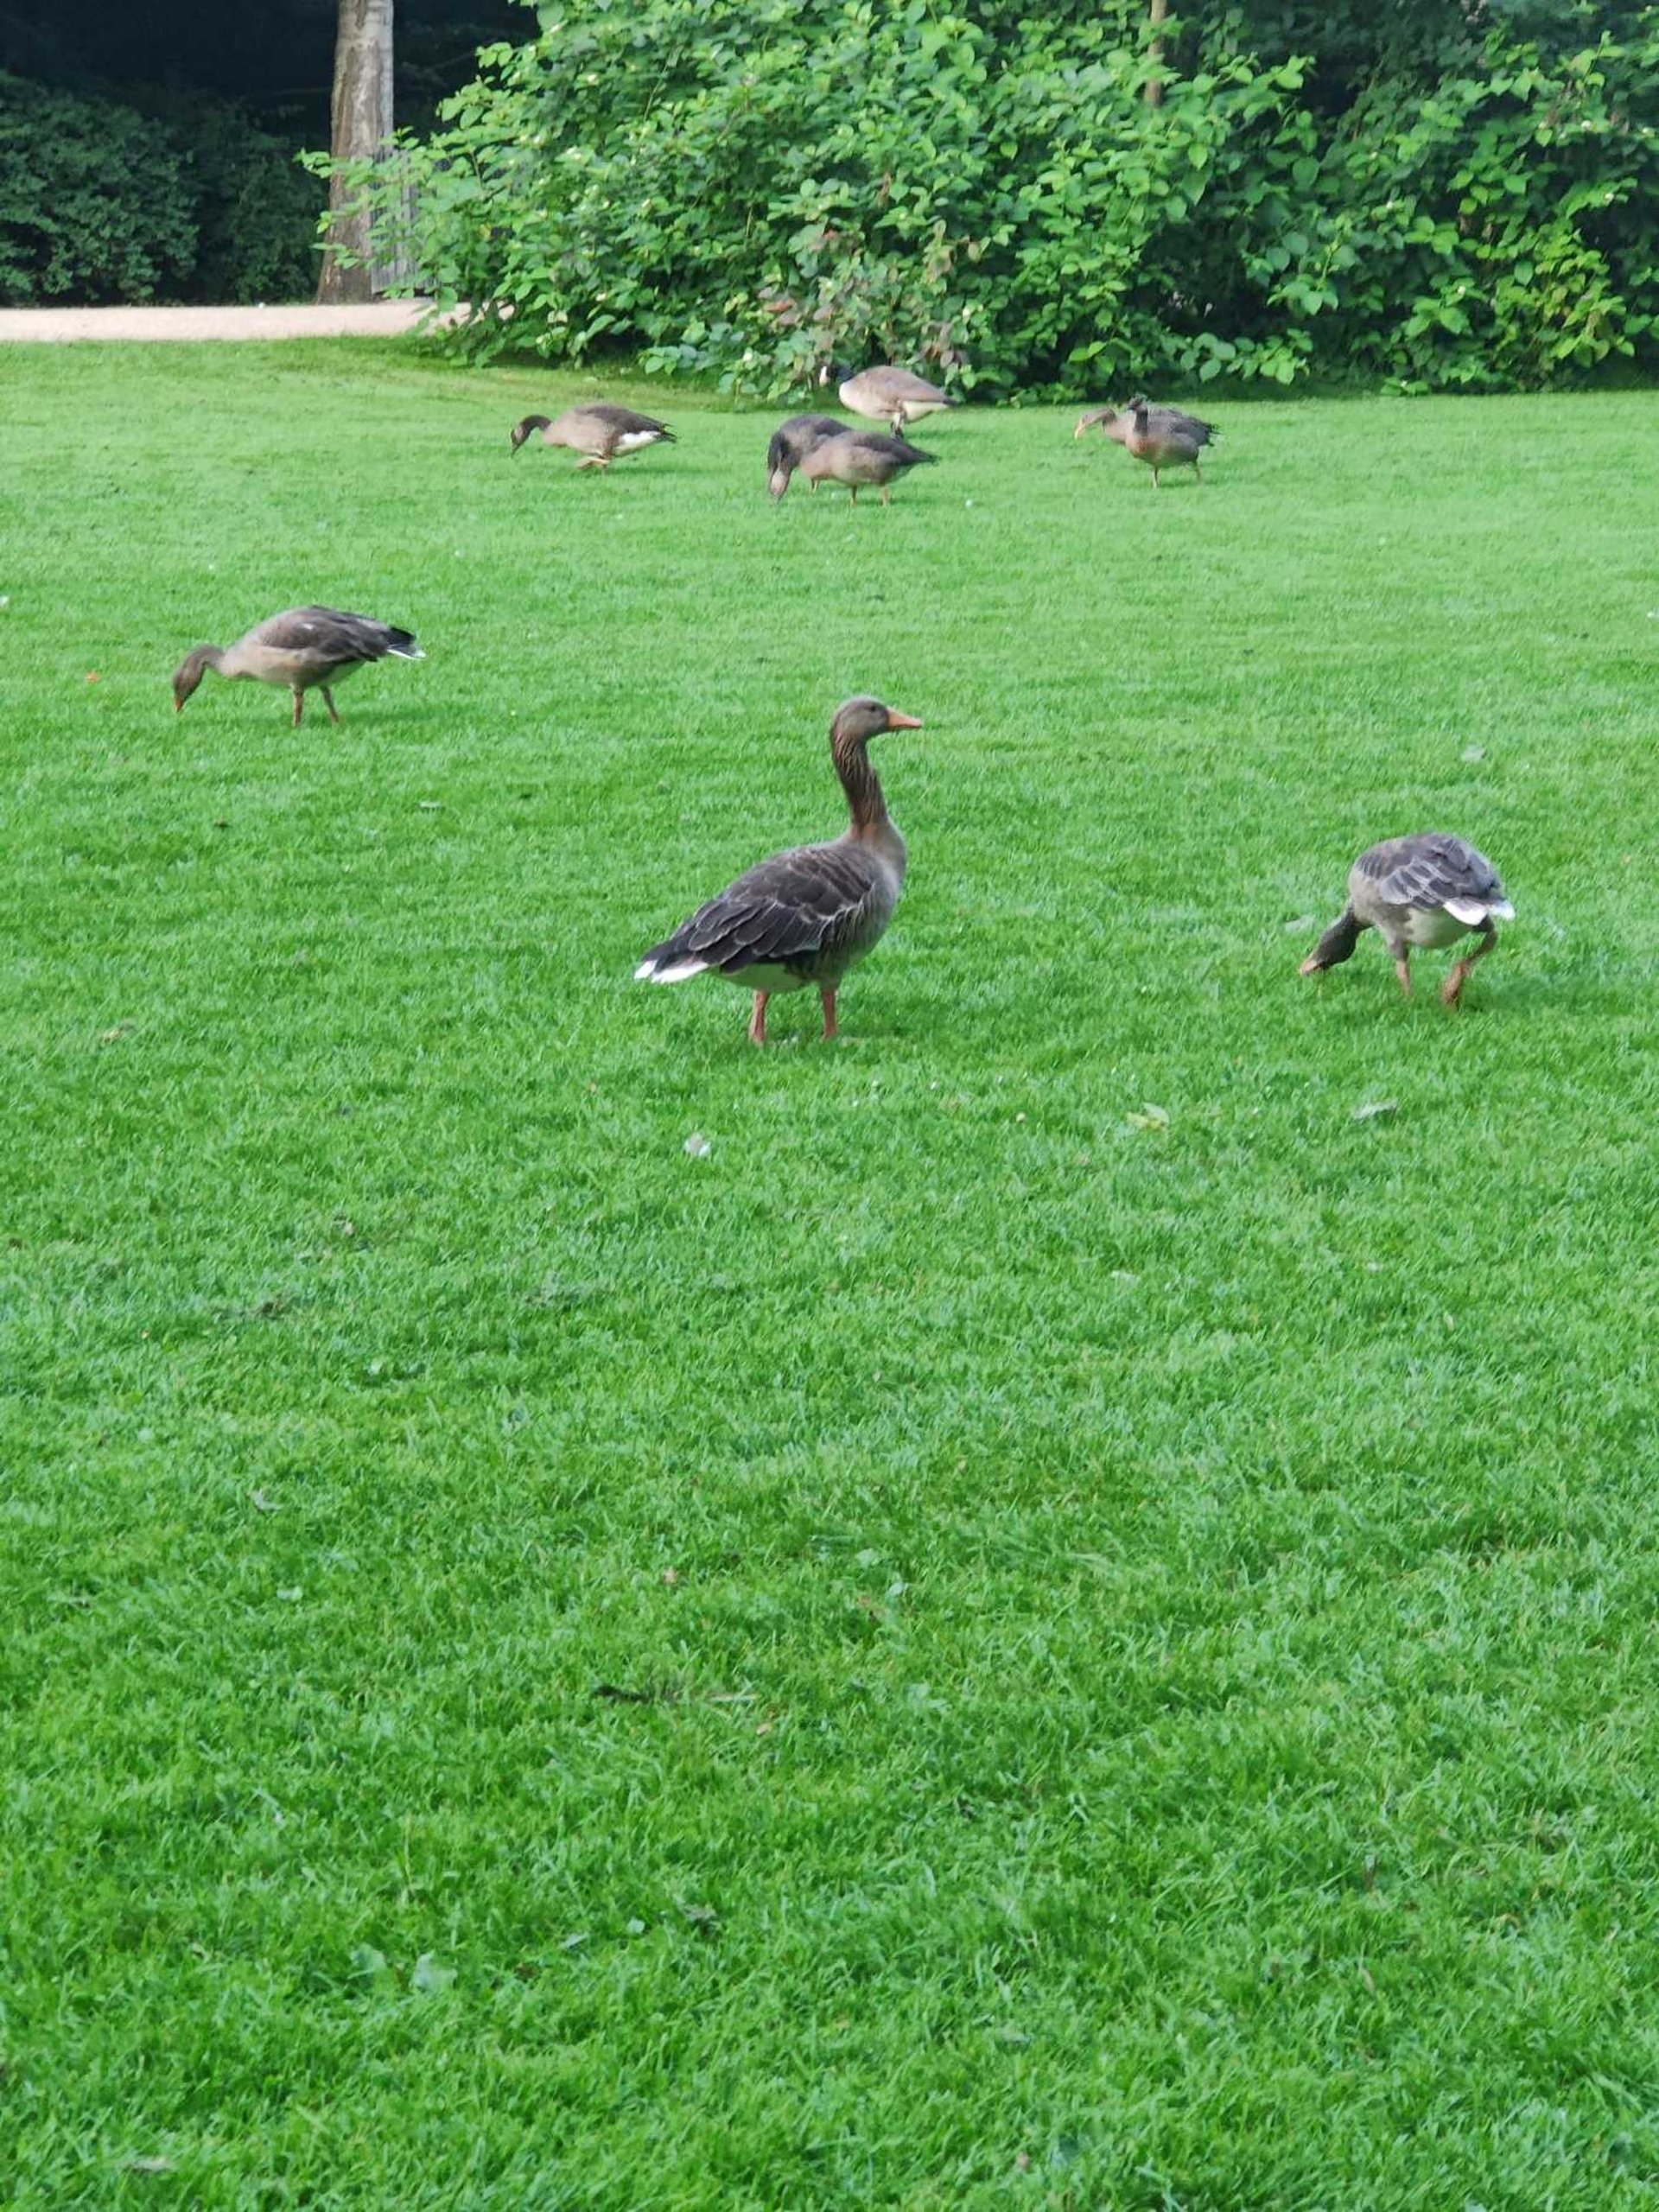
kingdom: Animalia
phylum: Chordata
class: Aves
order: Anseriformes
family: Anatidae
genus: Anser
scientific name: Anser anser
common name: Grågås
